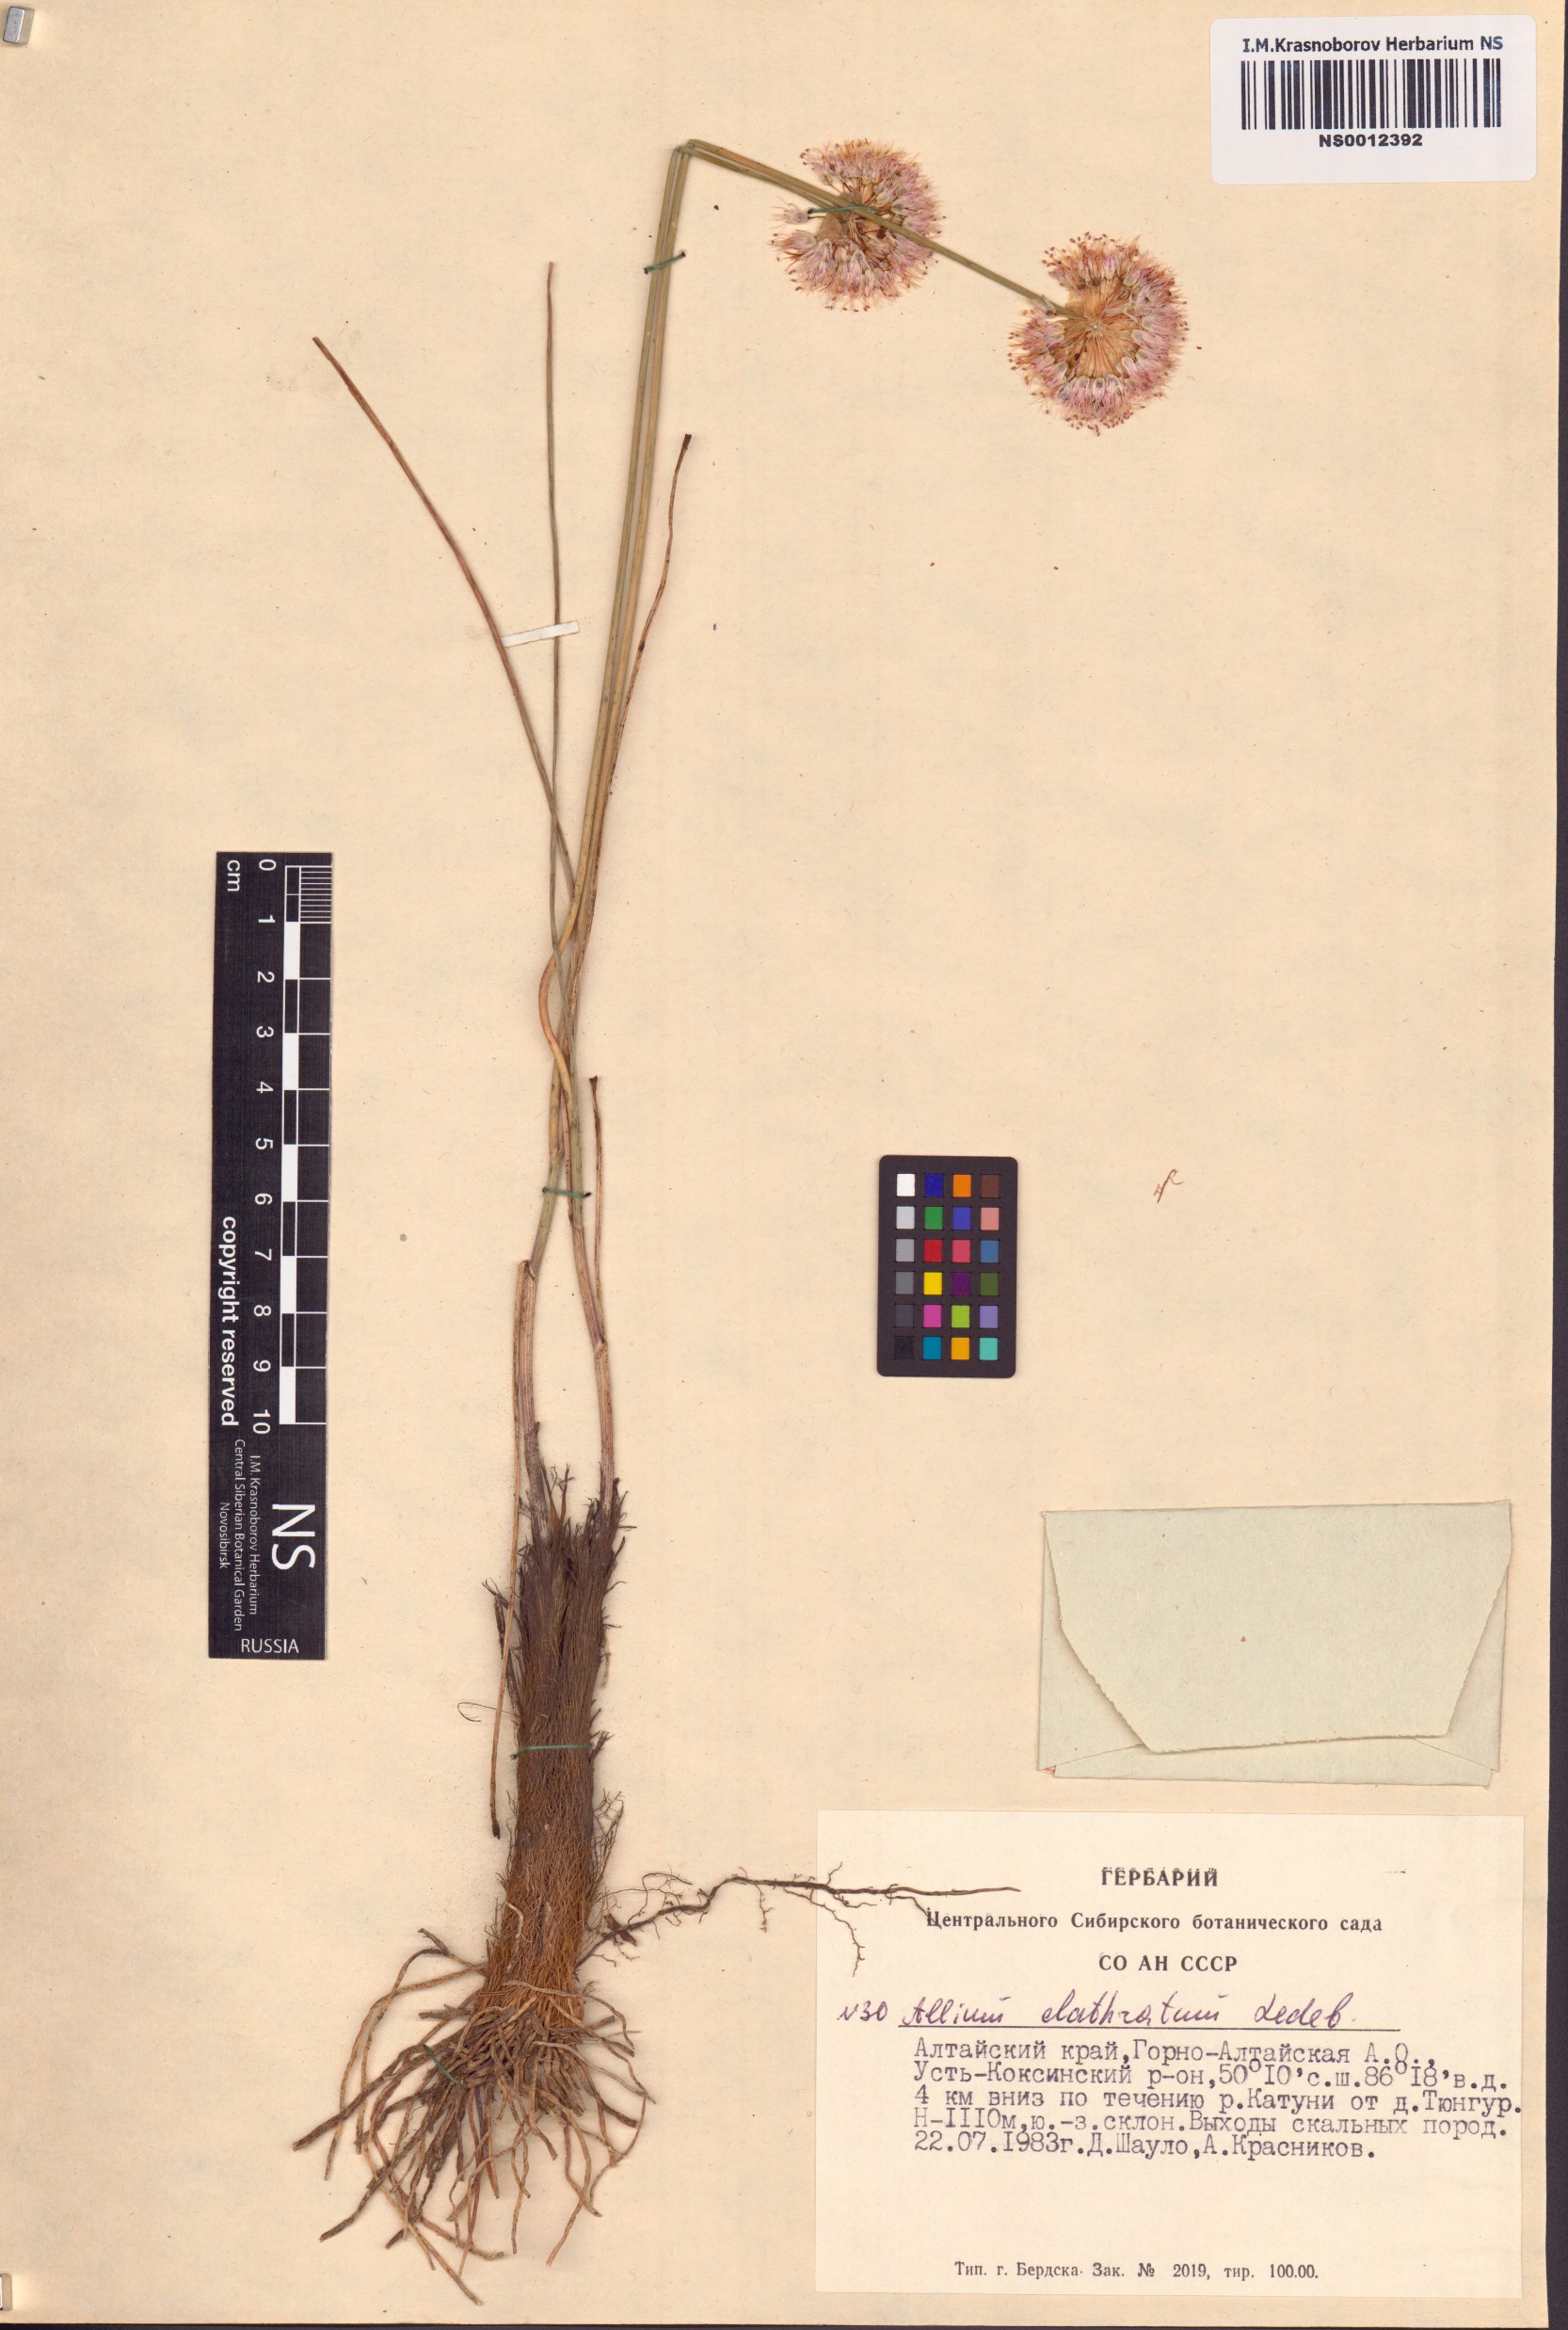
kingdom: Plantae
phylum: Tracheophyta
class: Liliopsida
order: Asparagales
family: Amaryllidaceae
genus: Allium
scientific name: Allium clathratum
